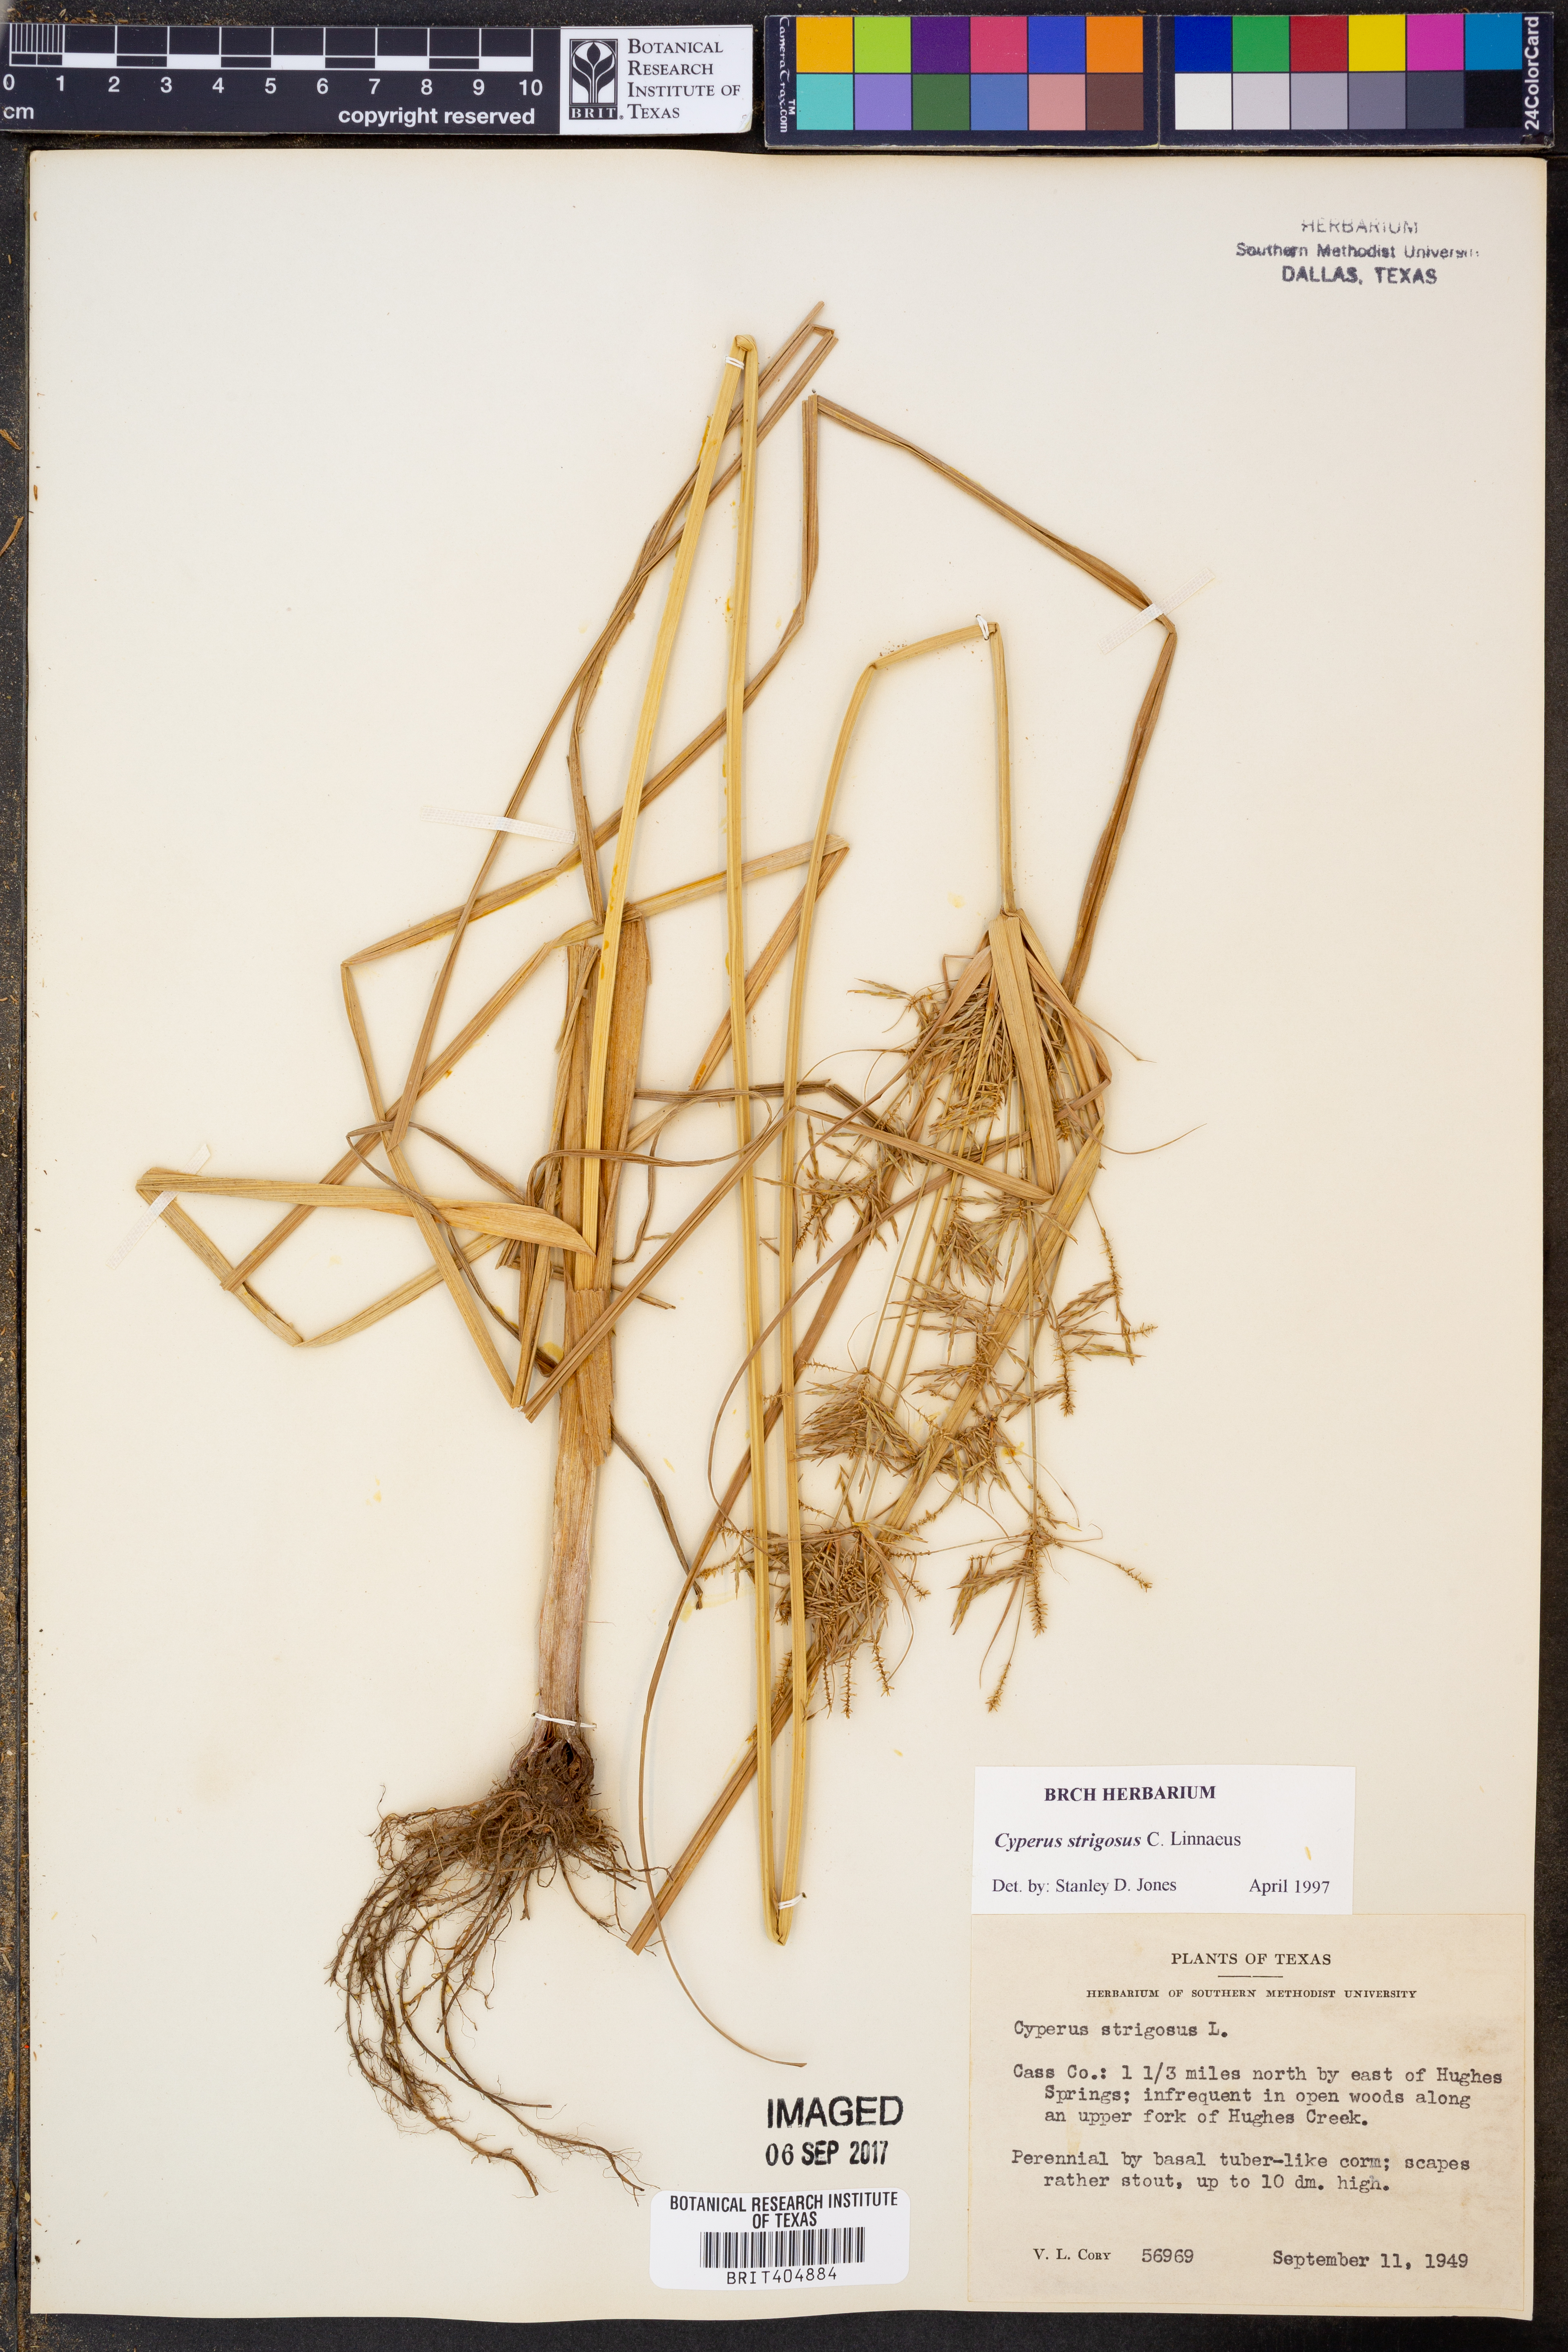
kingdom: Plantae
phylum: Tracheophyta
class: Liliopsida
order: Poales
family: Cyperaceae
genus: Cyperus
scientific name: Cyperus strigosus
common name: False nutsedge
